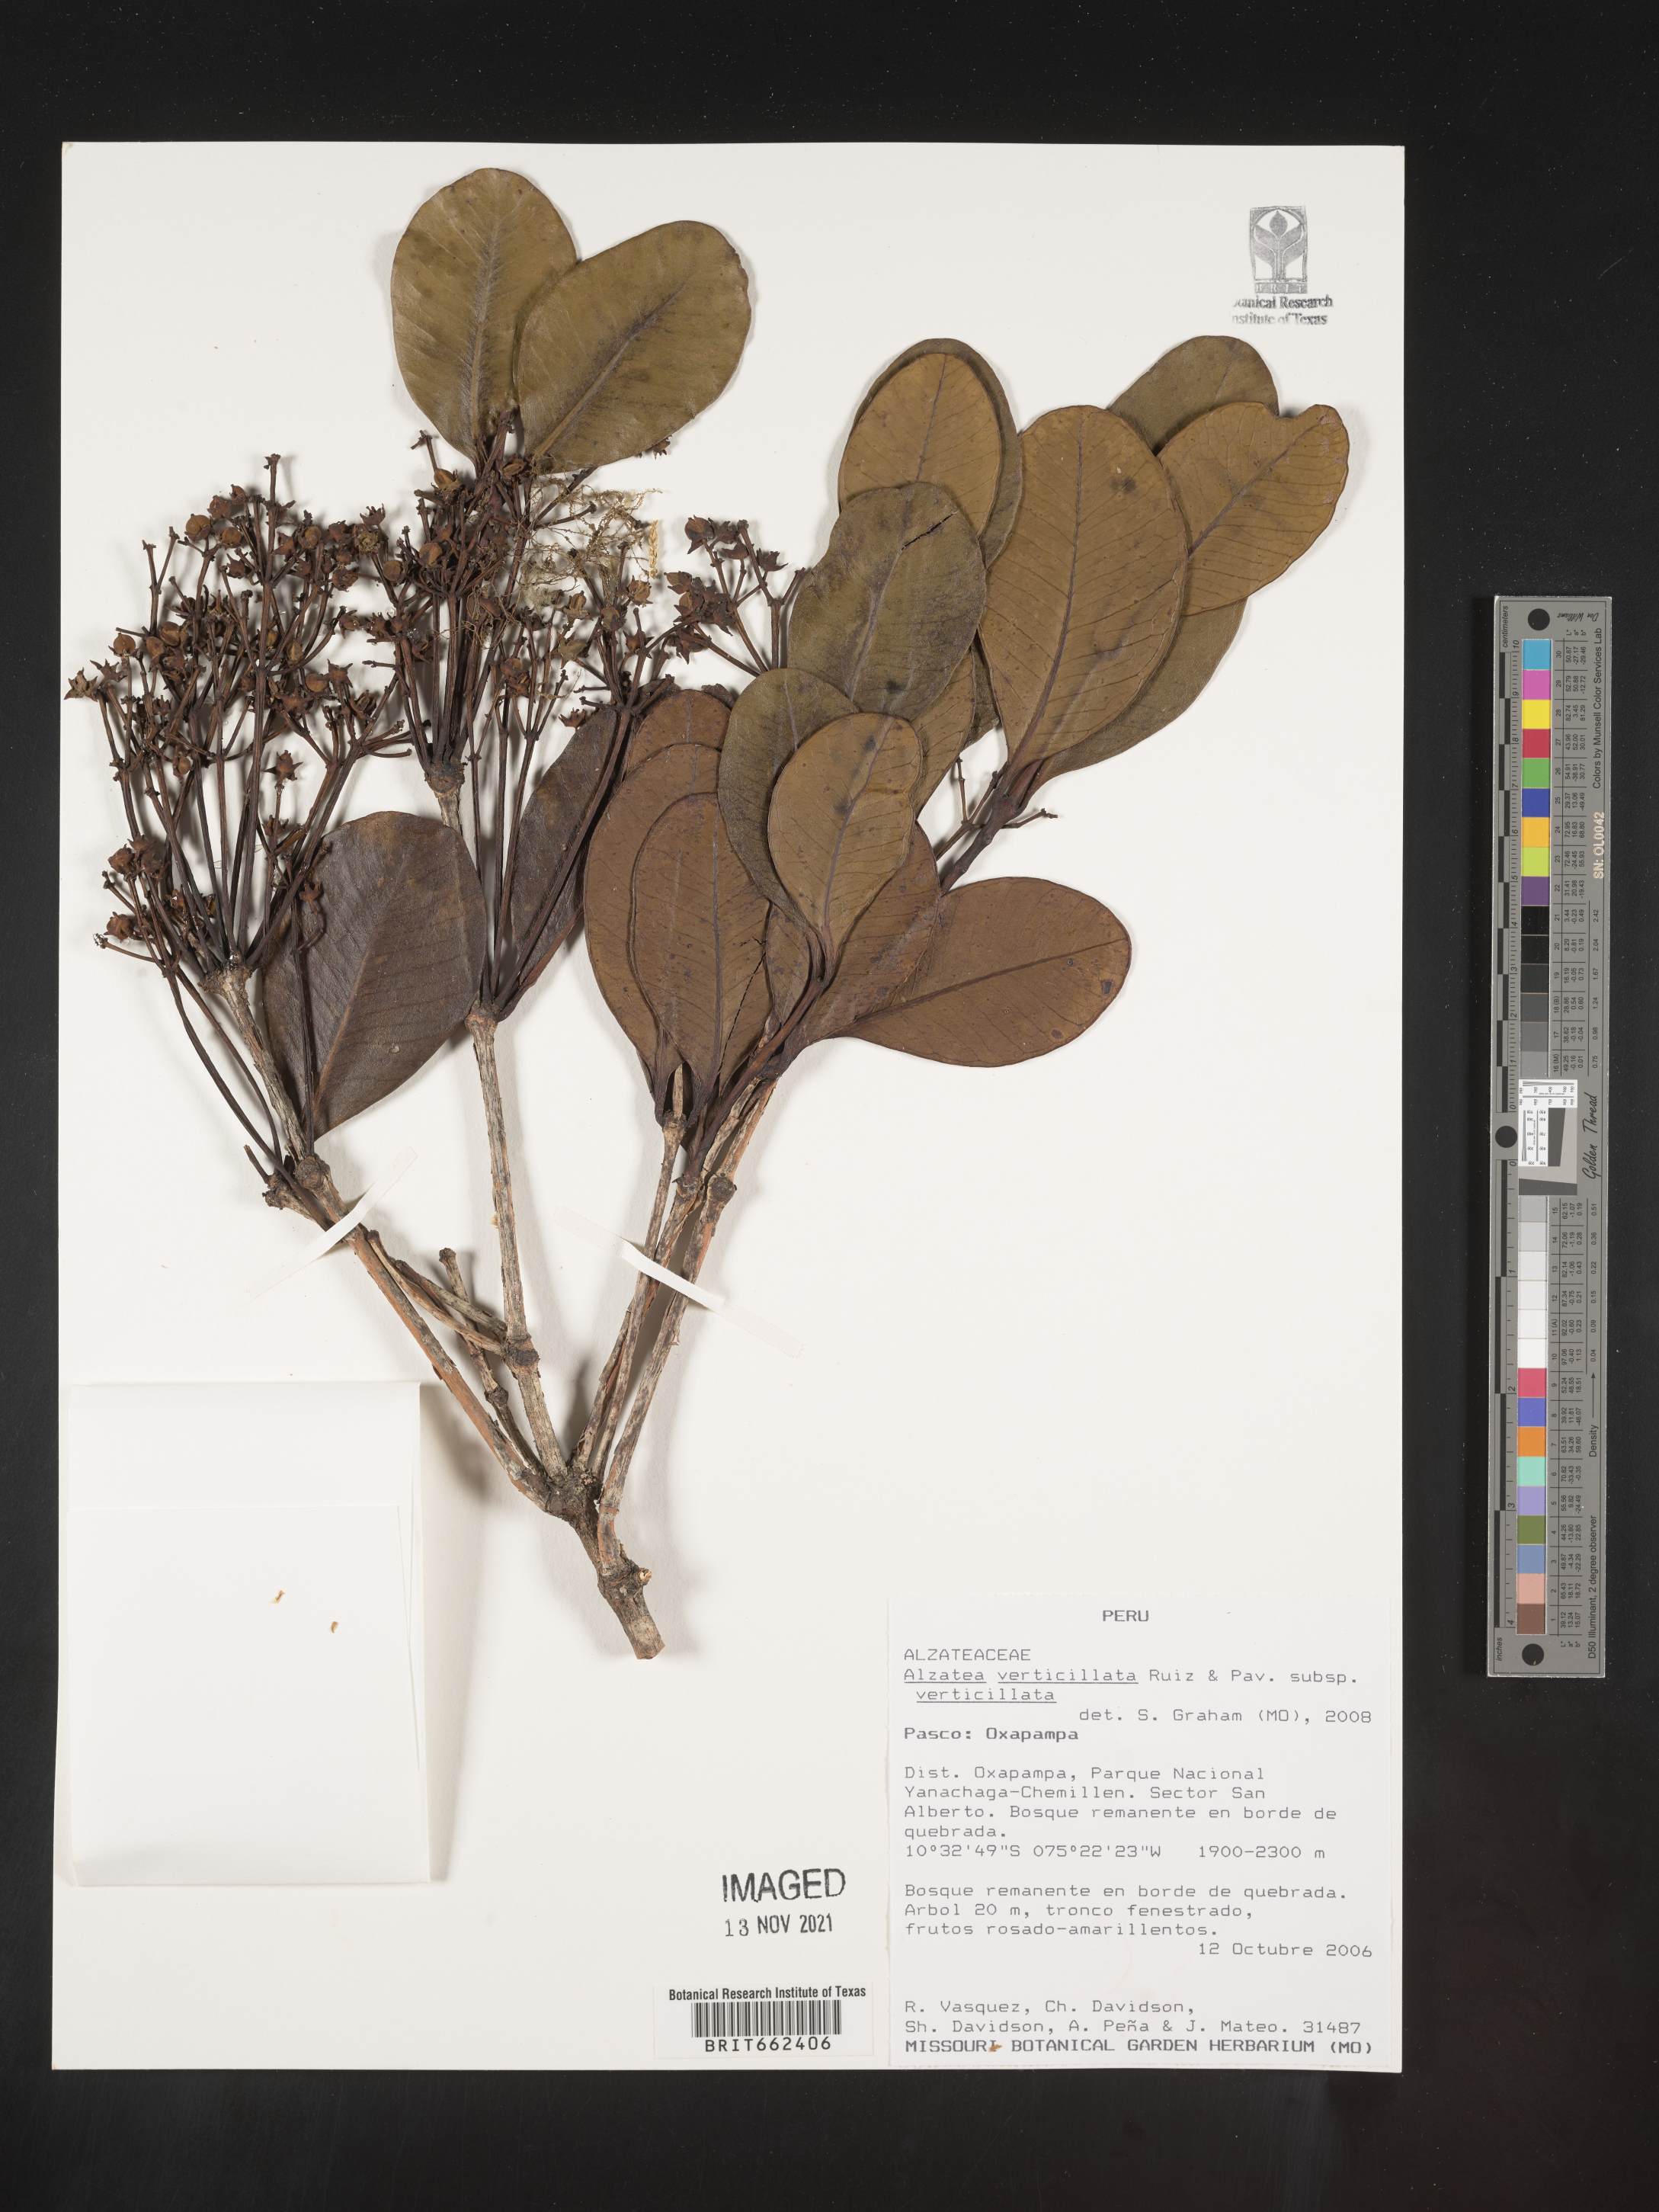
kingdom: Plantae
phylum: Tracheophyta
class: Magnoliopsida
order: Myrtales
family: Alzateaceae
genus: Alzatea
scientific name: Alzatea
